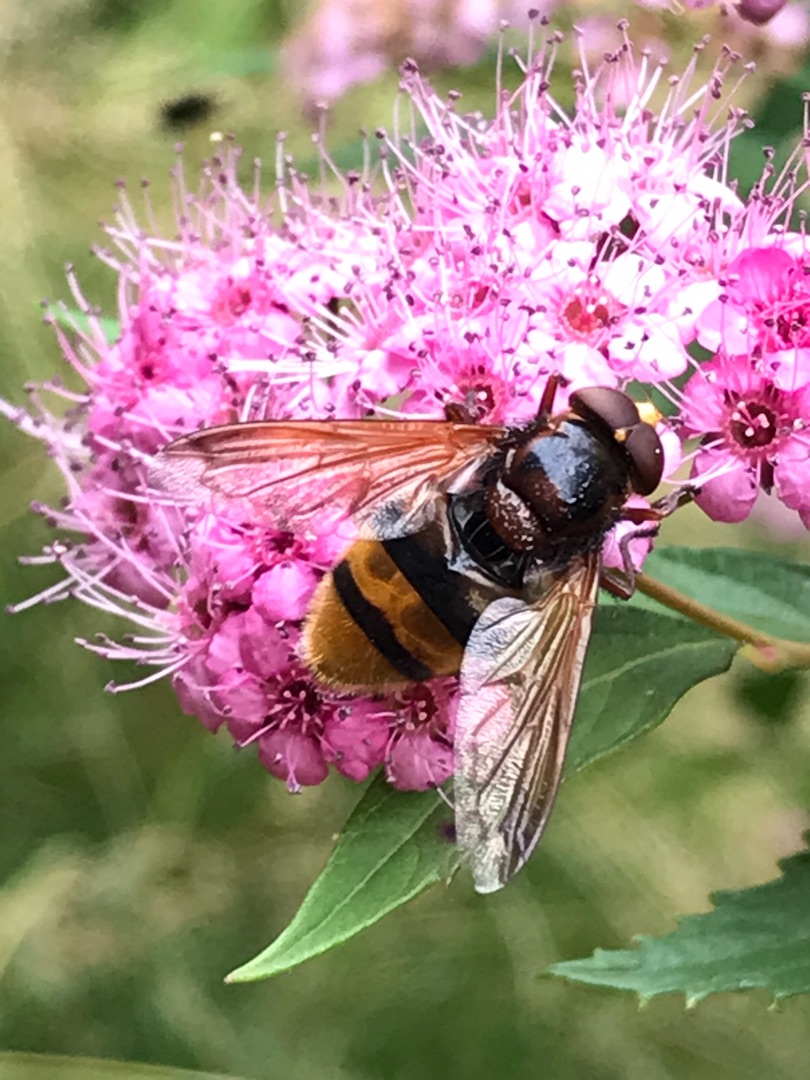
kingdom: Animalia
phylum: Arthropoda
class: Insecta
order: Diptera
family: Syrphidae
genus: Volucella
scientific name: Volucella zonaria
